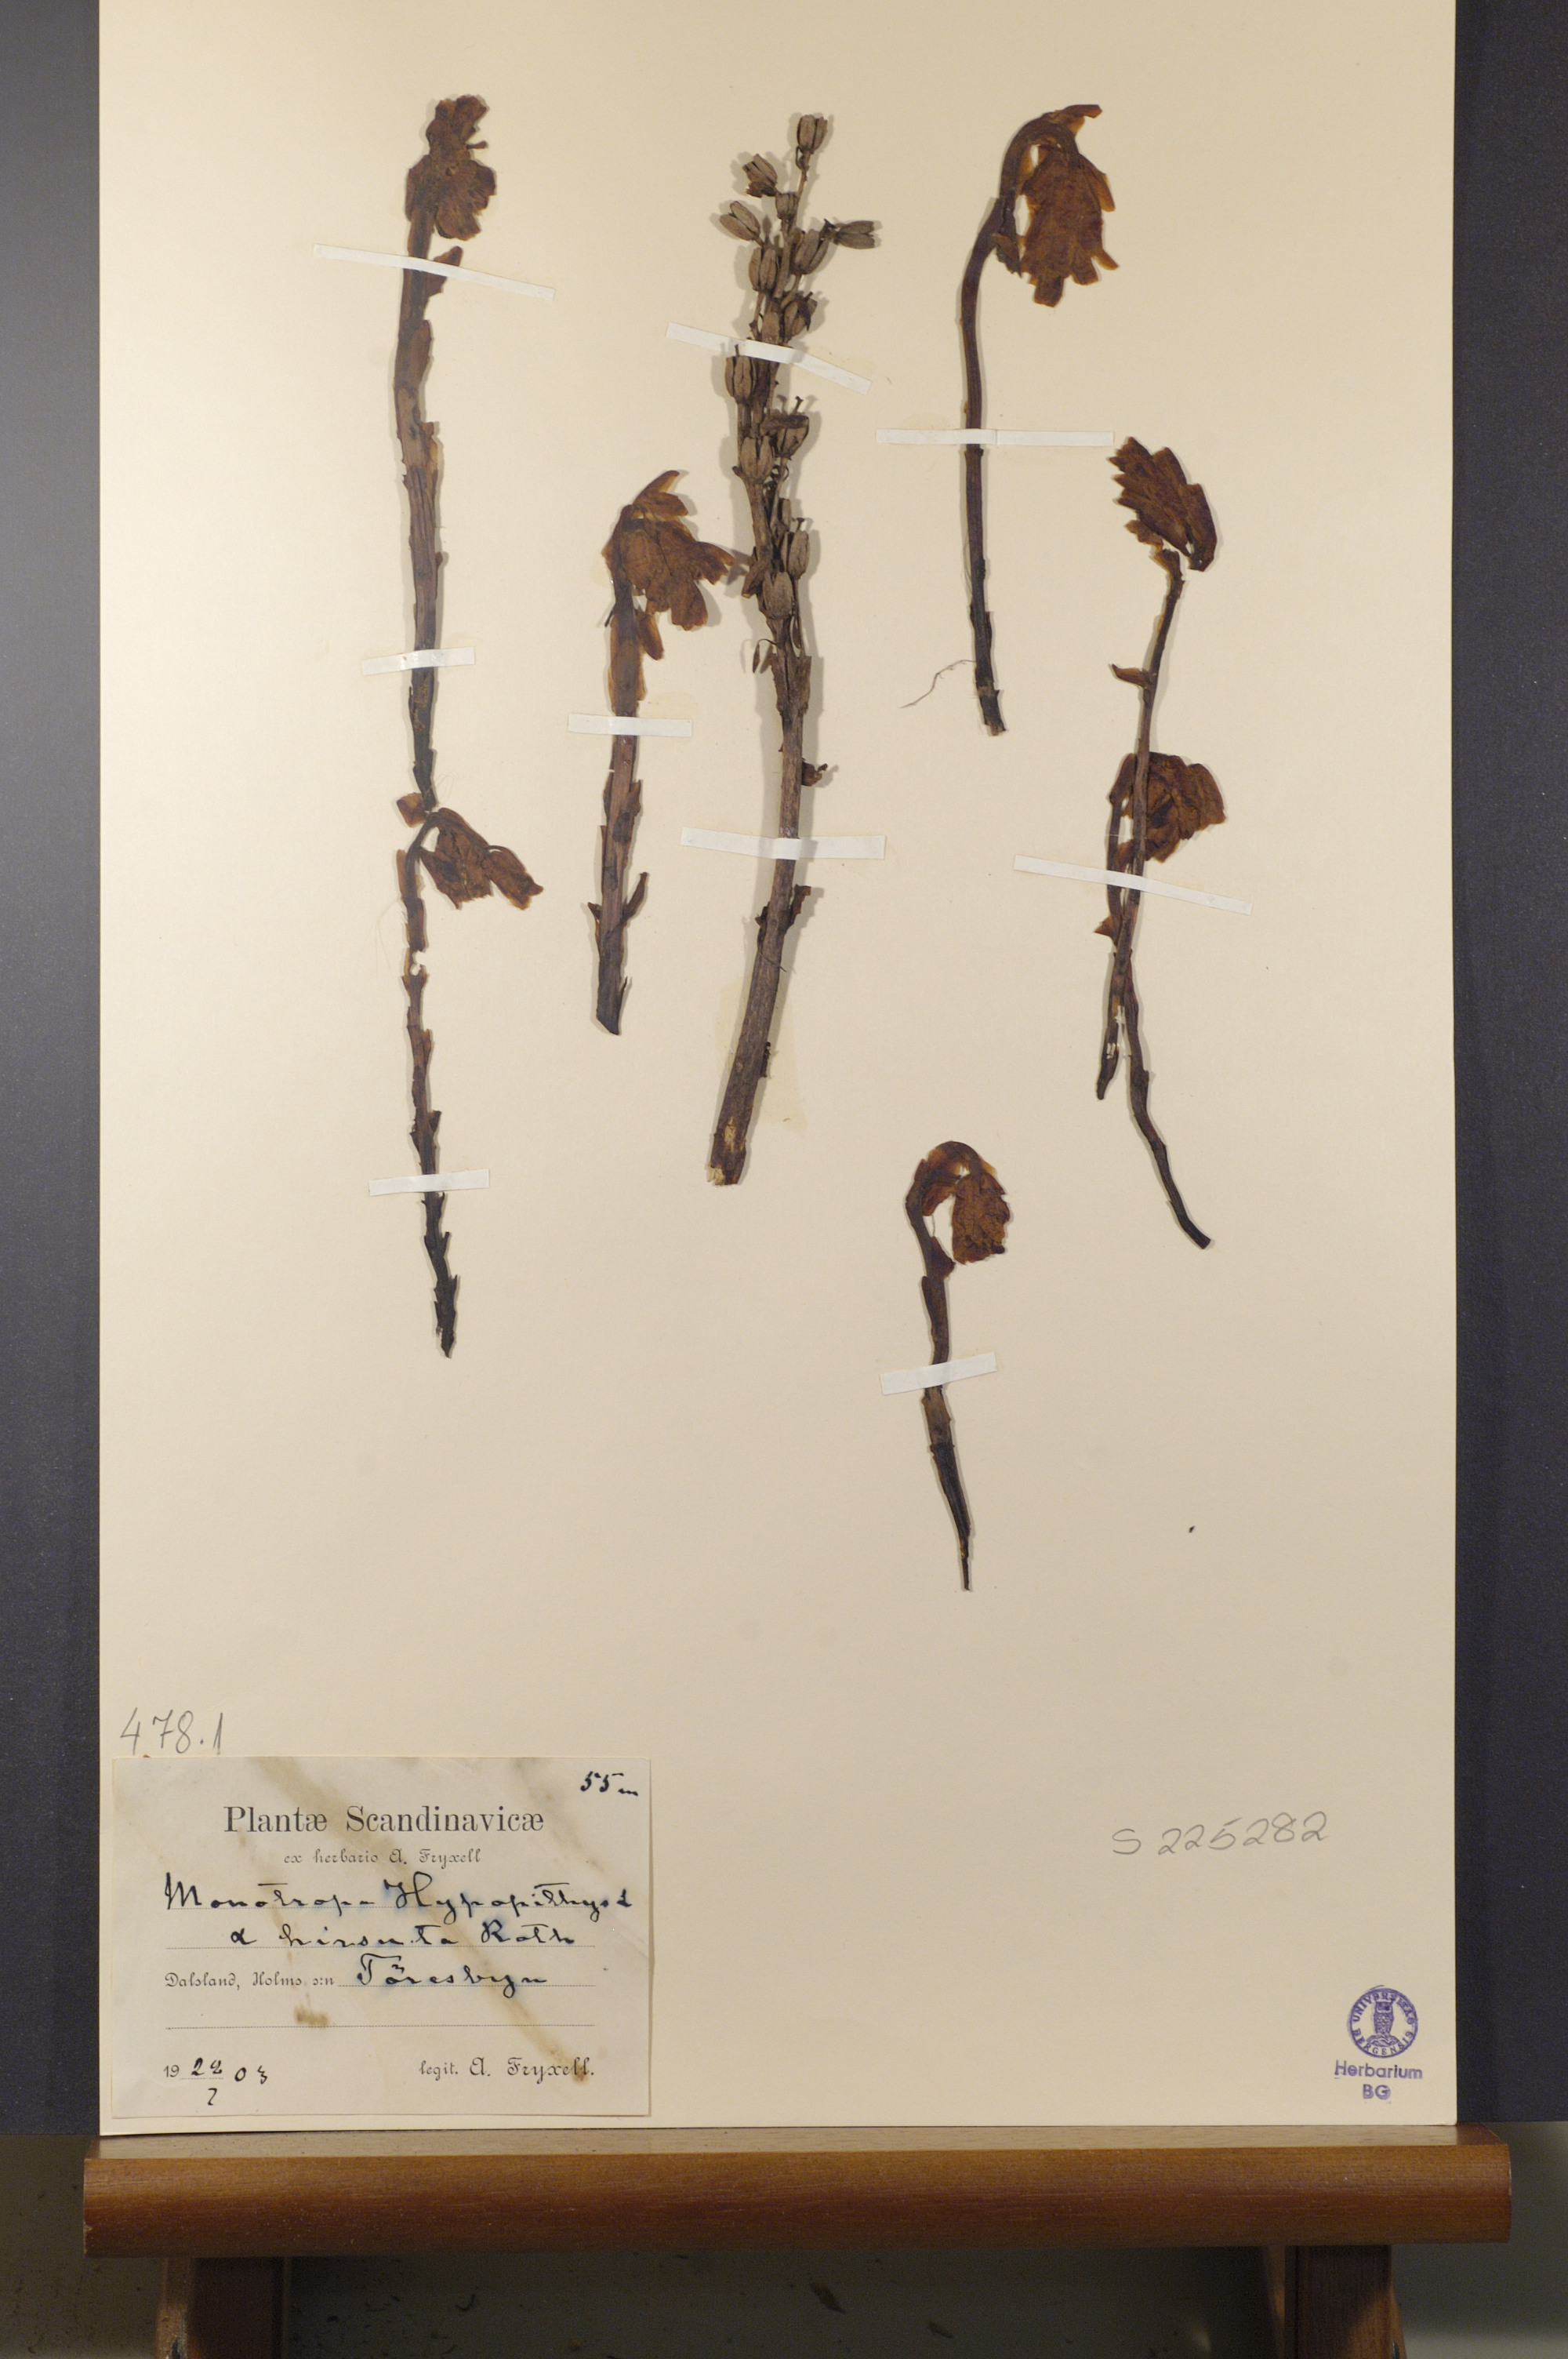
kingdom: Plantae
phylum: Tracheophyta
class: Magnoliopsida
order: Ericales
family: Ericaceae
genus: Hypopitys
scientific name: Hypopitys monotropa
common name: Yellow bird's-nest
